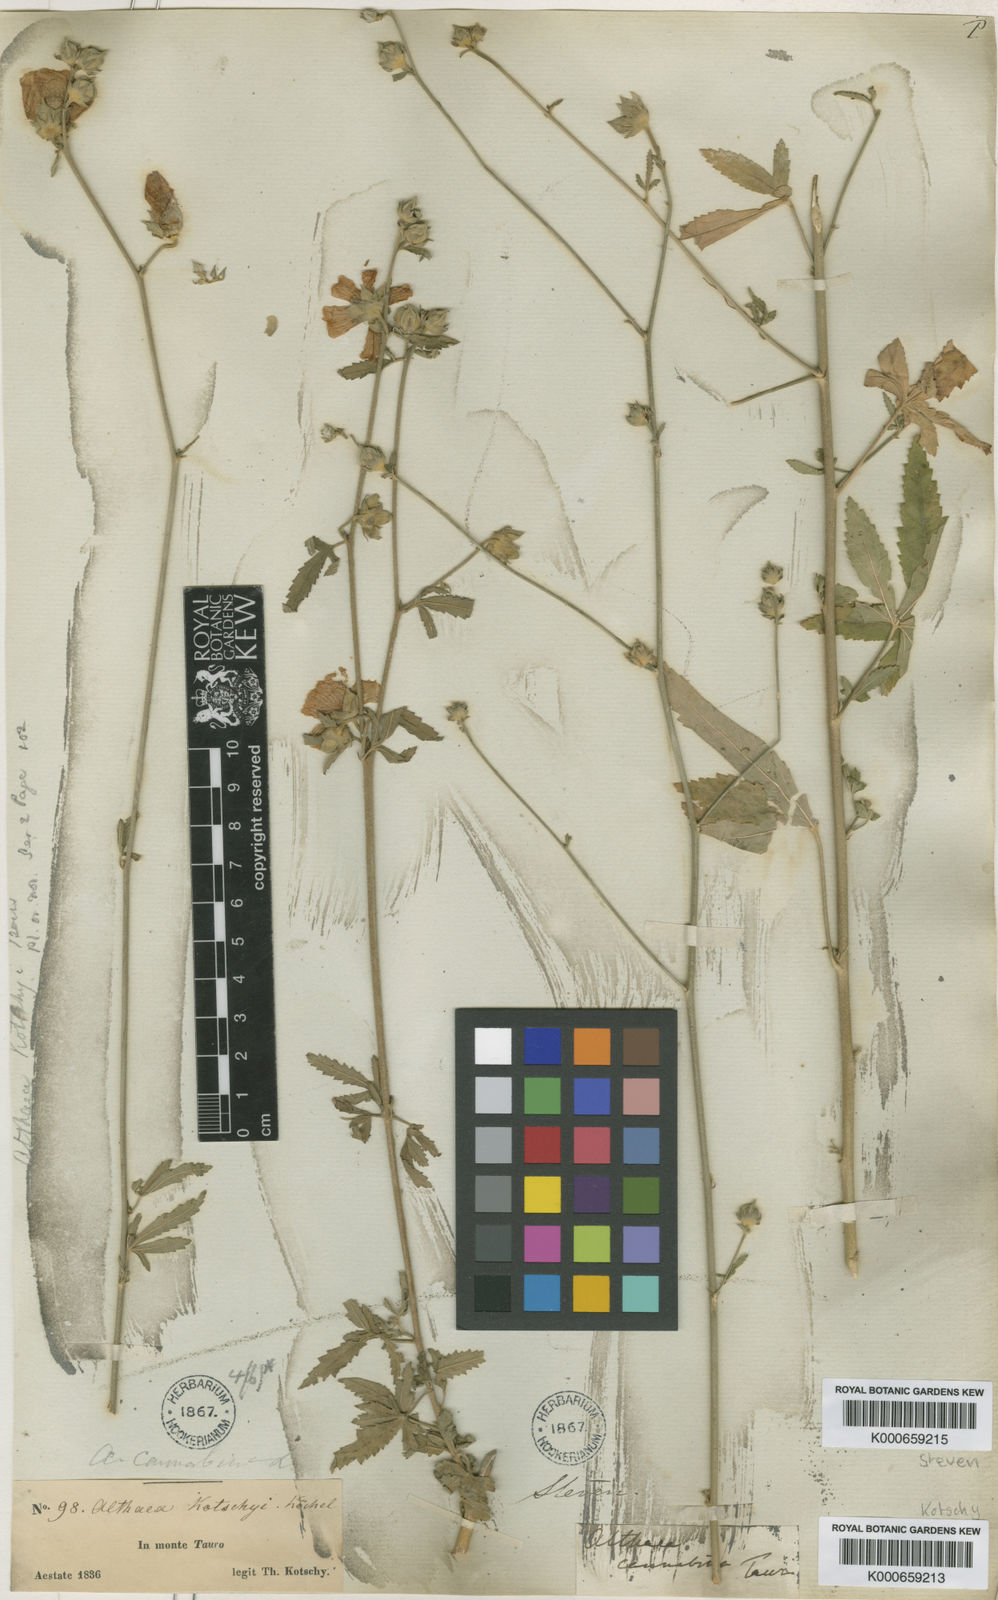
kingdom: Plantae
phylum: Tracheophyta
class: Magnoliopsida
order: Malvales
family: Malvaceae
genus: Althaea
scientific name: Althaea cannabina
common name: Palm-leaf marshmallow
